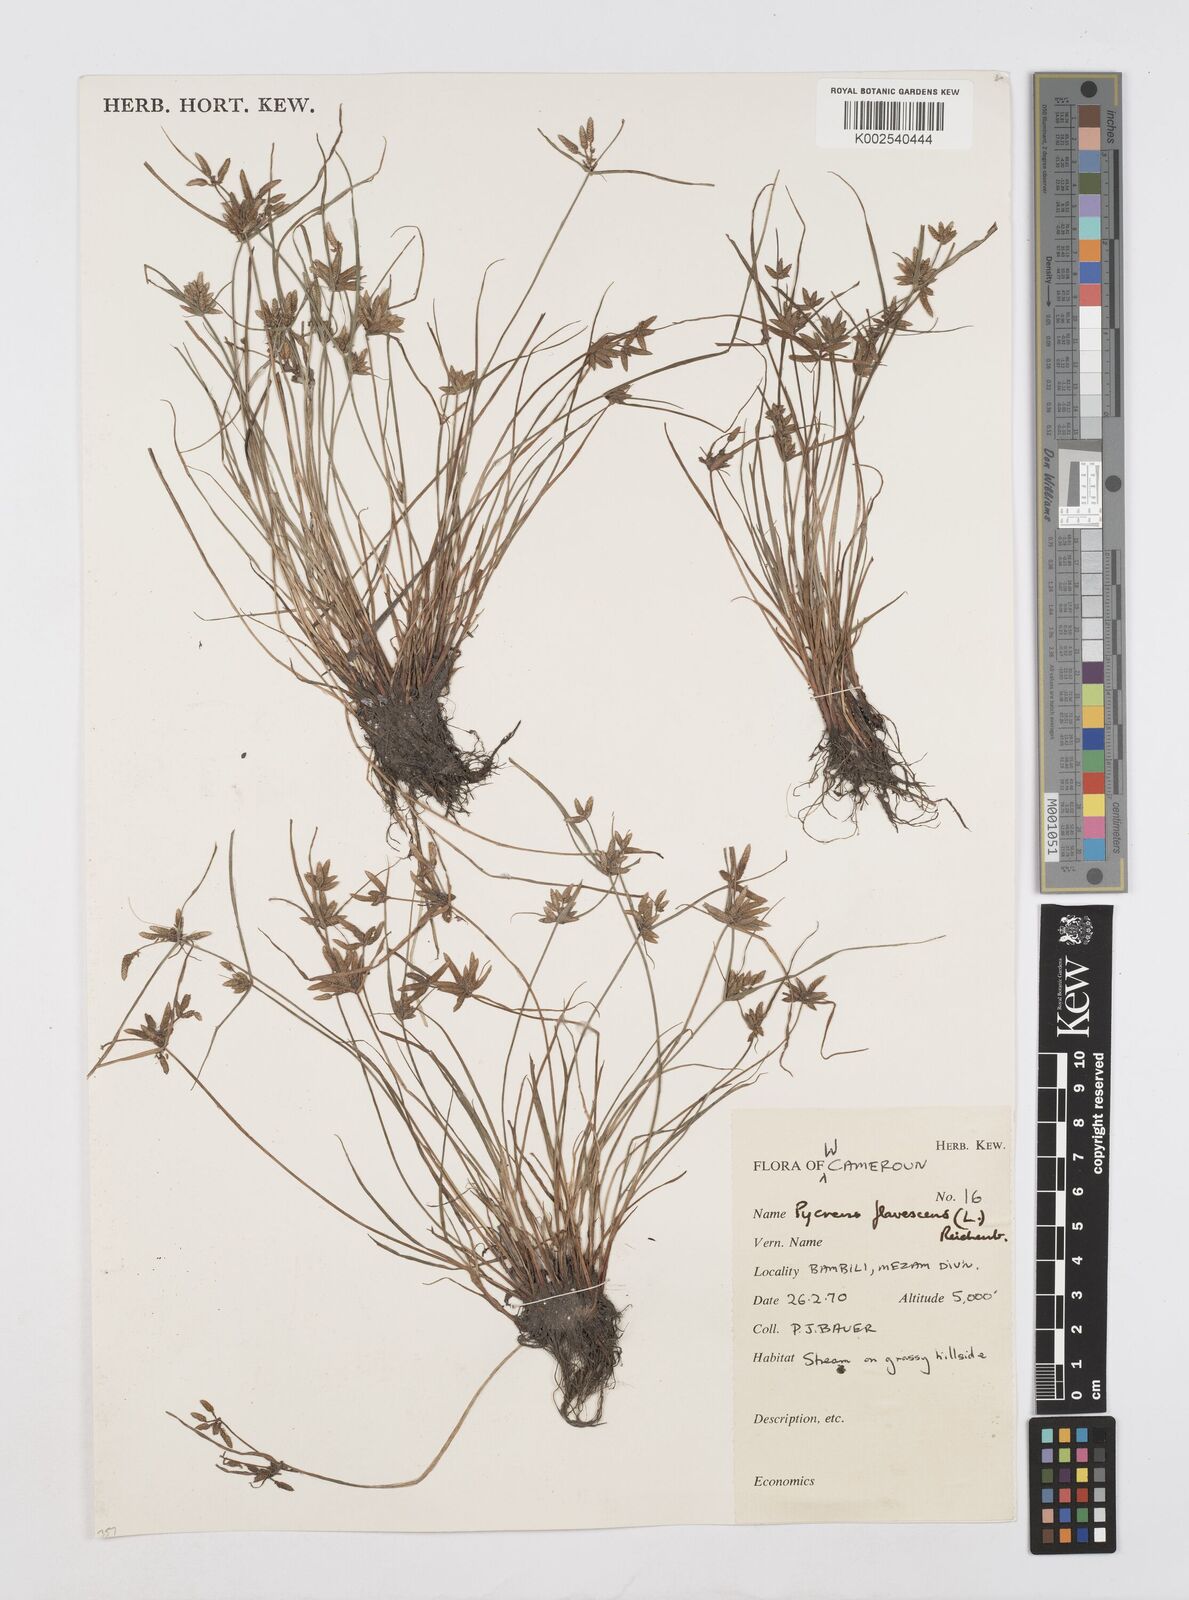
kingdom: Plantae
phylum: Tracheophyta
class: Liliopsida
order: Poales
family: Cyperaceae
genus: Cyperus
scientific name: Cyperus flavescens
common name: Yellow galingale
